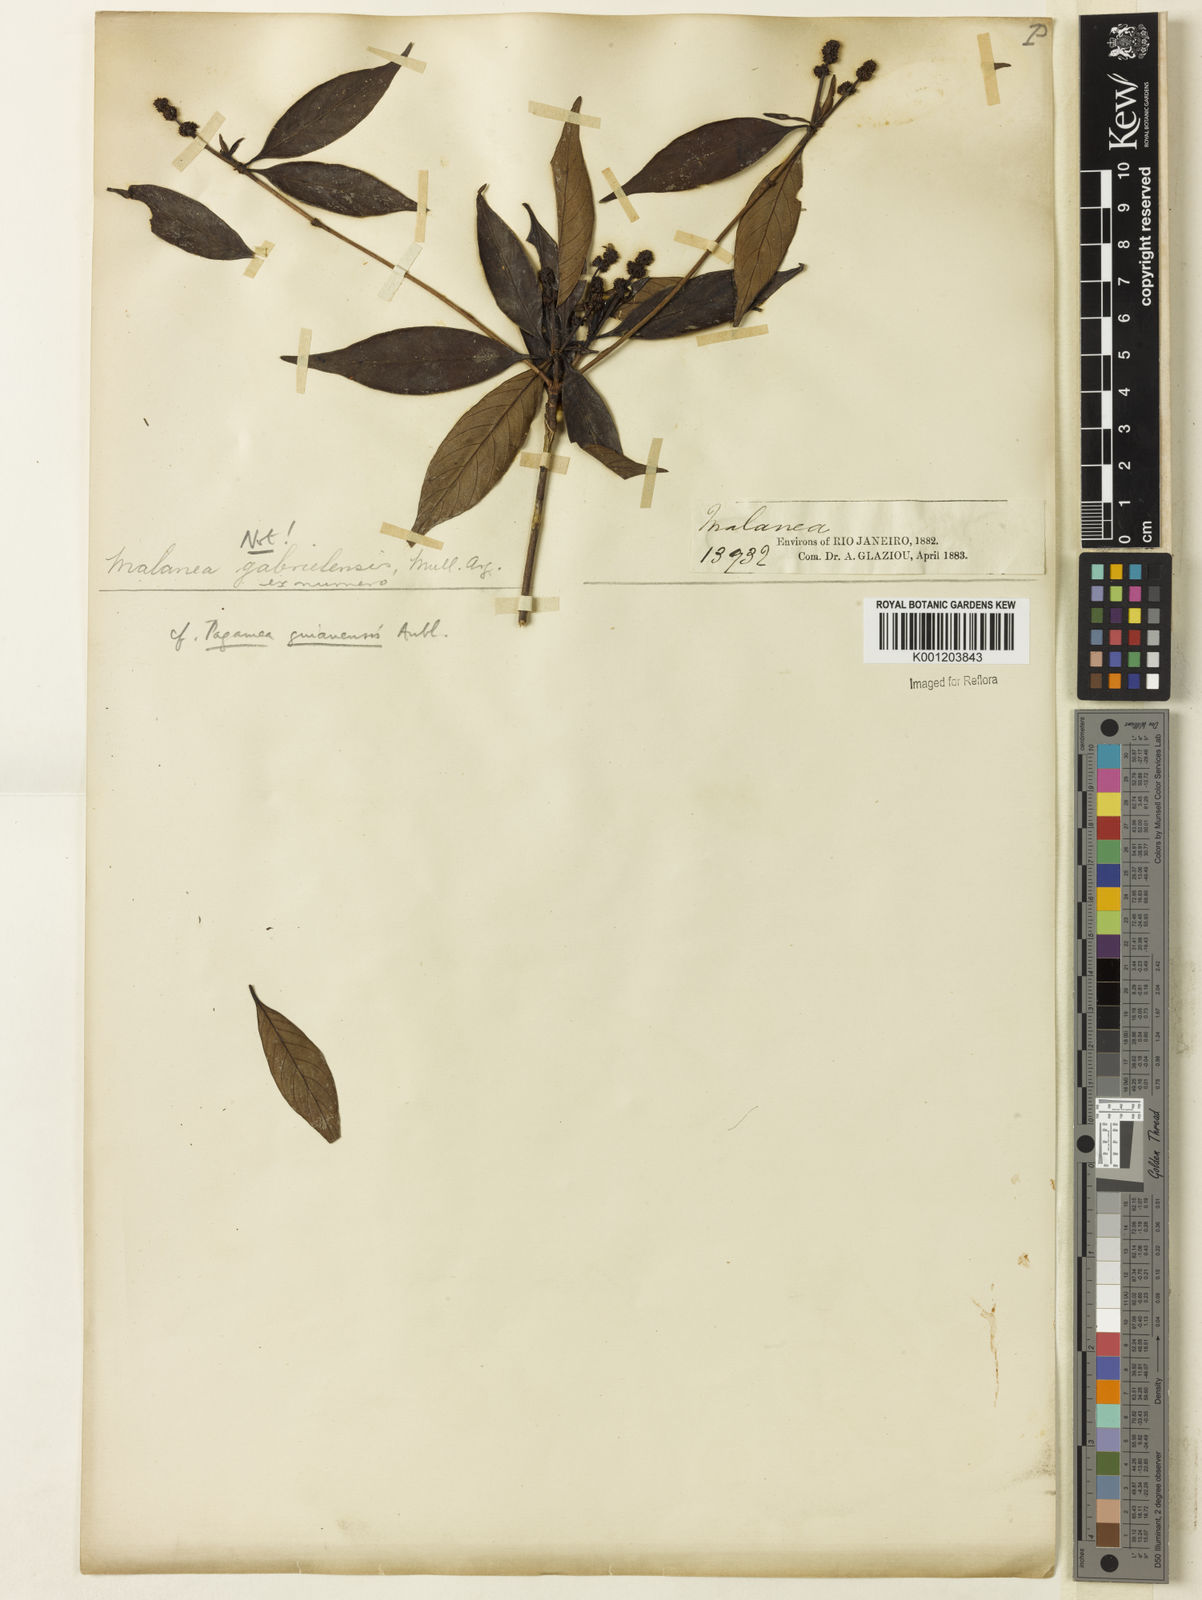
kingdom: Plantae
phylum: Tracheophyta
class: Magnoliopsida
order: Gentianales
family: Rubiaceae
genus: Pagamea
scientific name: Pagamea guianensis
